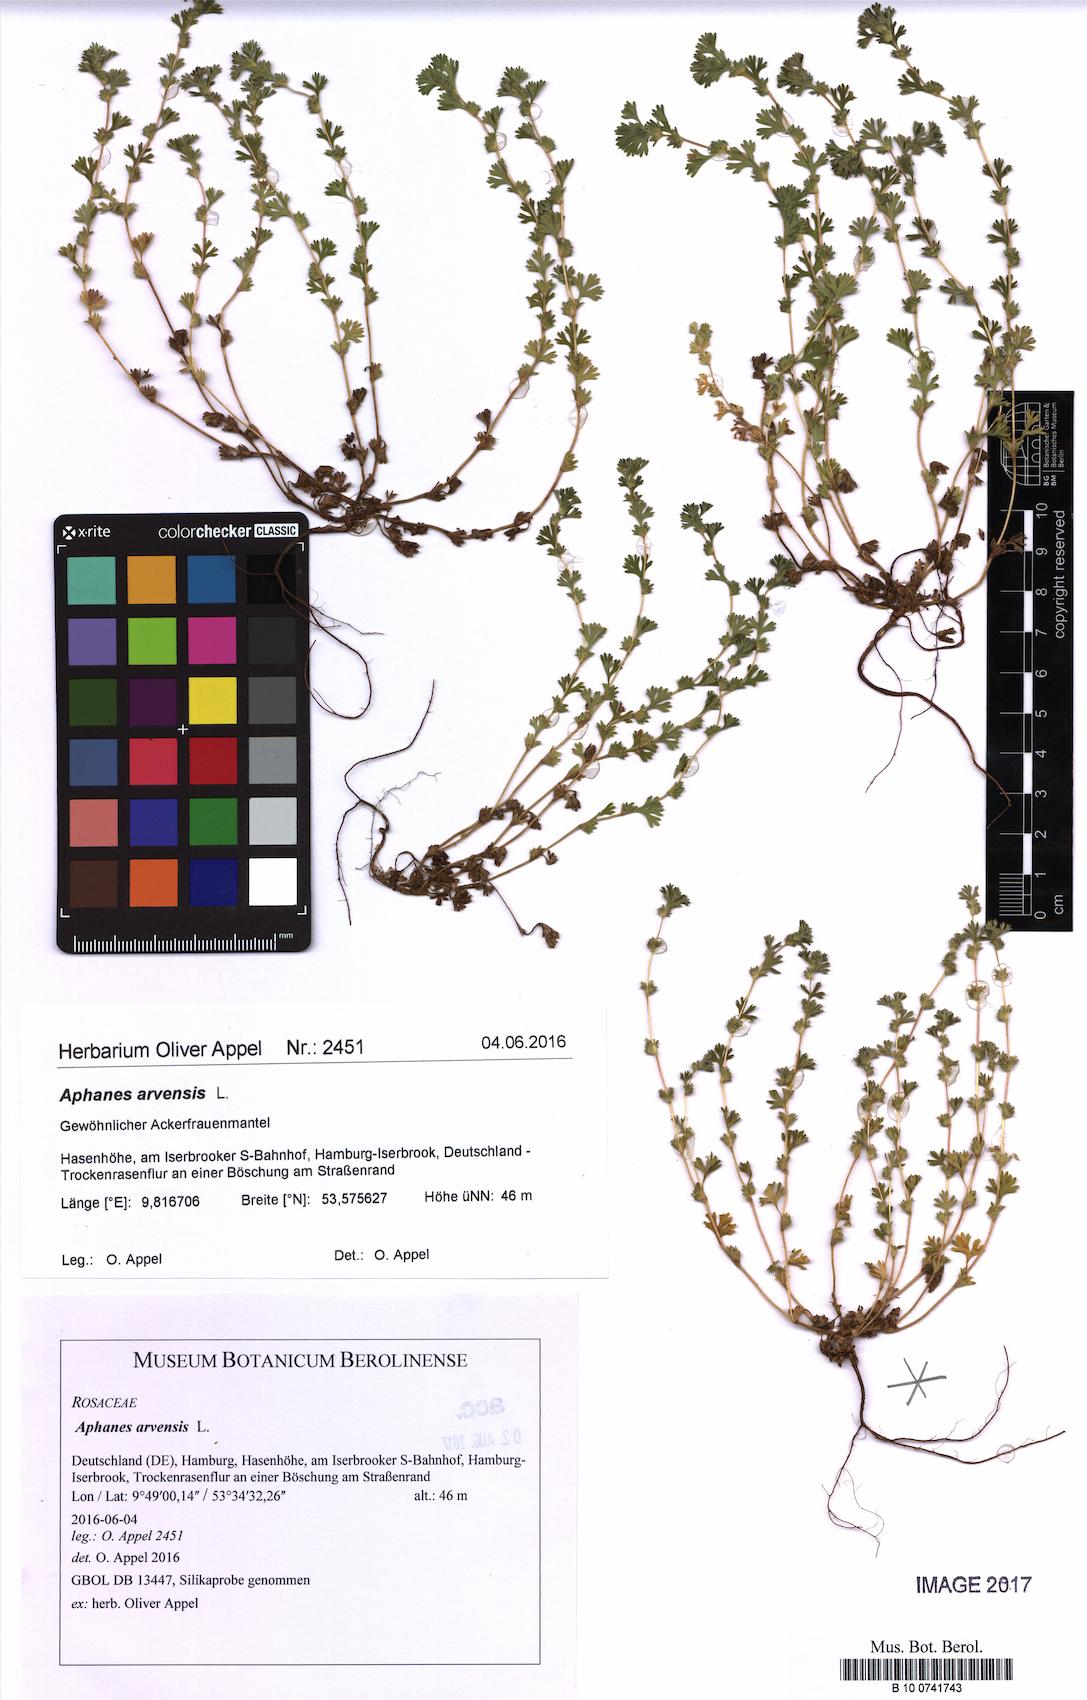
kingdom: Plantae
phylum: Tracheophyta
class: Magnoliopsida
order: Rosales
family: Rosaceae
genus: Aphanes
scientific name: Aphanes arvensis
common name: Parsley-piert
